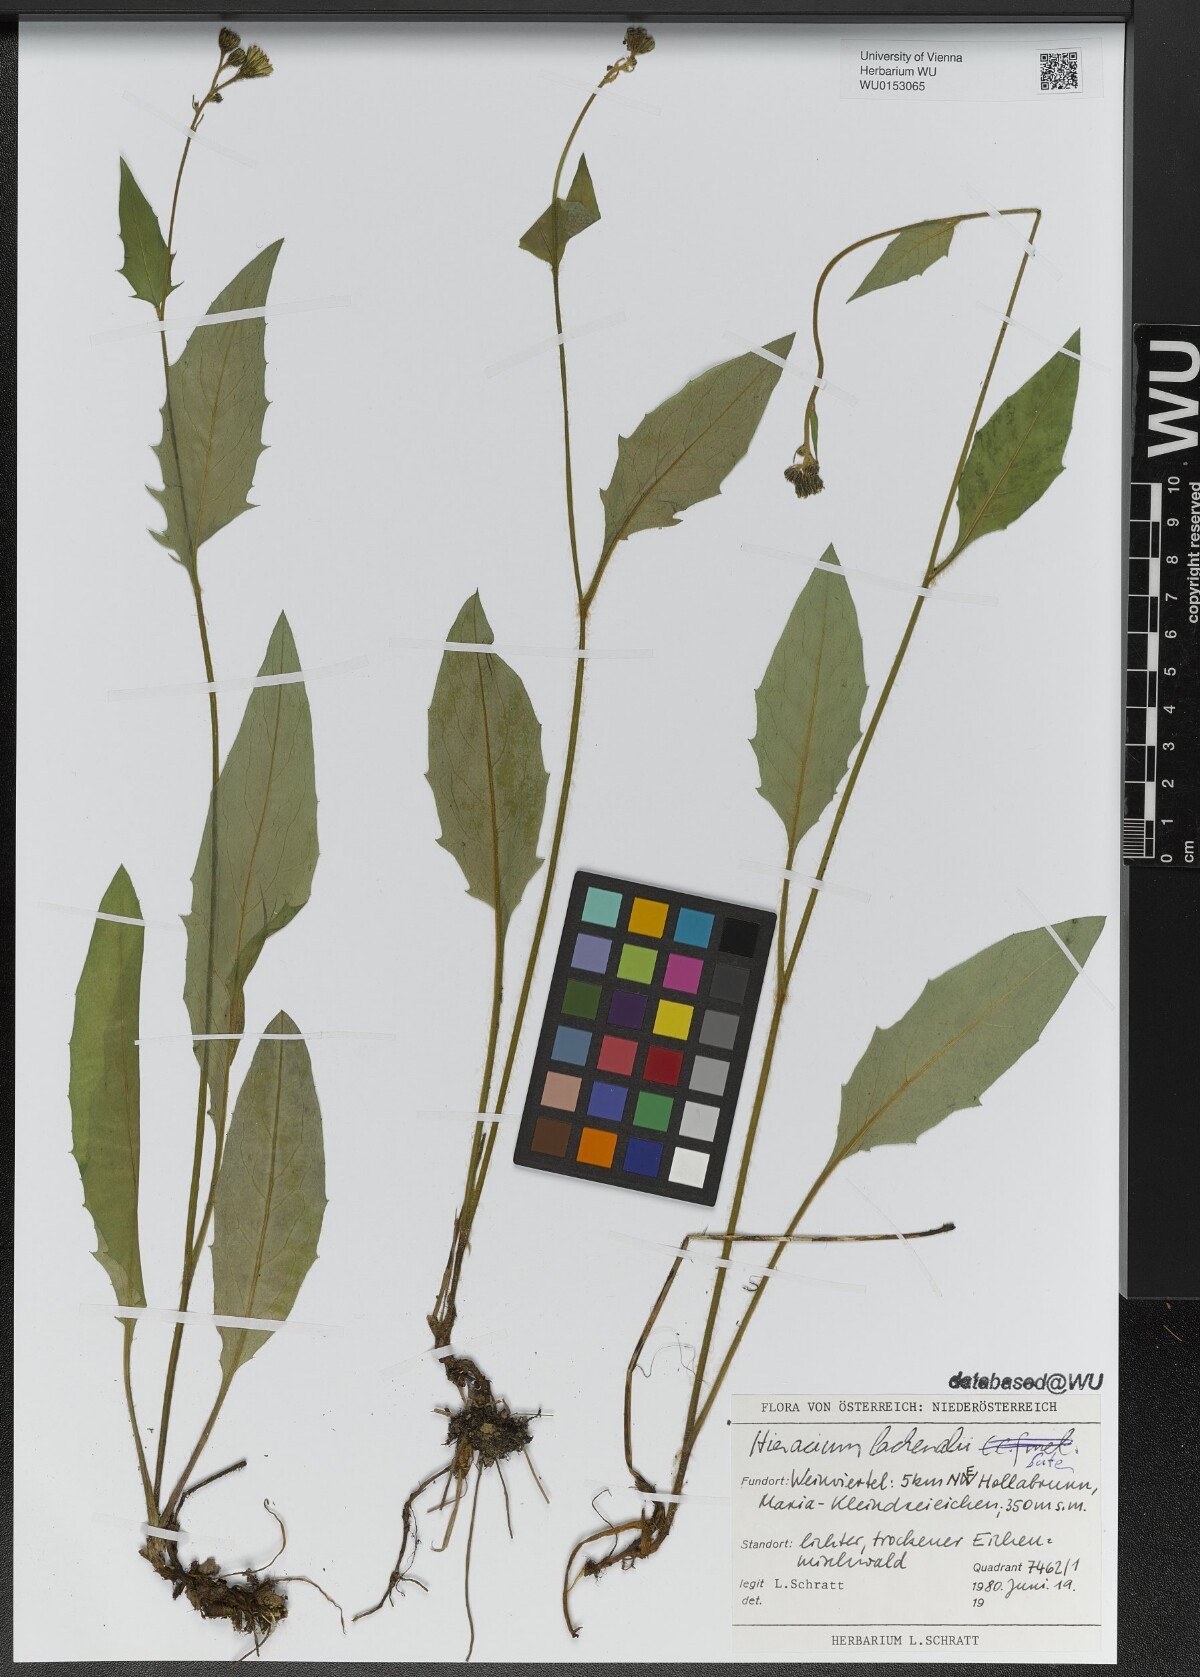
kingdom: Plantae
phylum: Tracheophyta
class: Magnoliopsida
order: Asterales
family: Asteraceae
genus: Hieracium
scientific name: Hieracium lachenalii
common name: Common hawkweed
